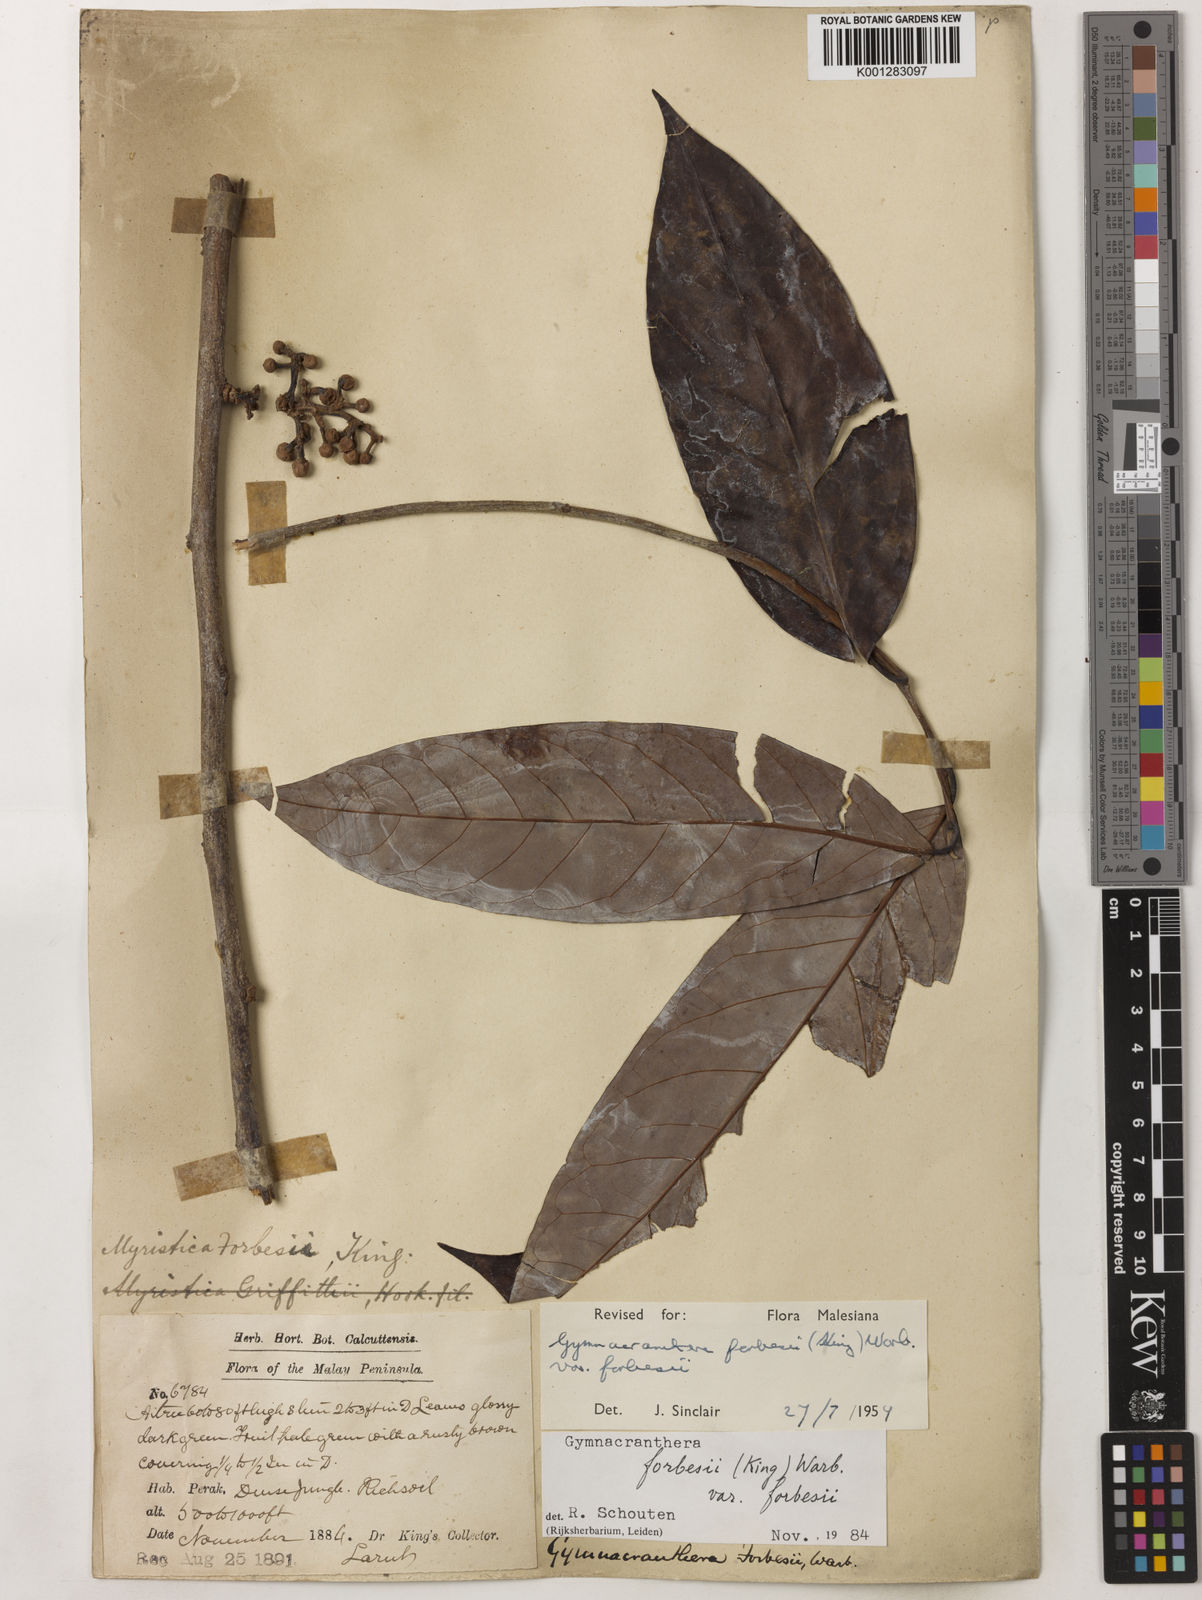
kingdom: Plantae
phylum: Tracheophyta
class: Magnoliopsida
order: Magnoliales
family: Myristicaceae
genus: Gymnacranthera
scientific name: Gymnacranthera forbesii
